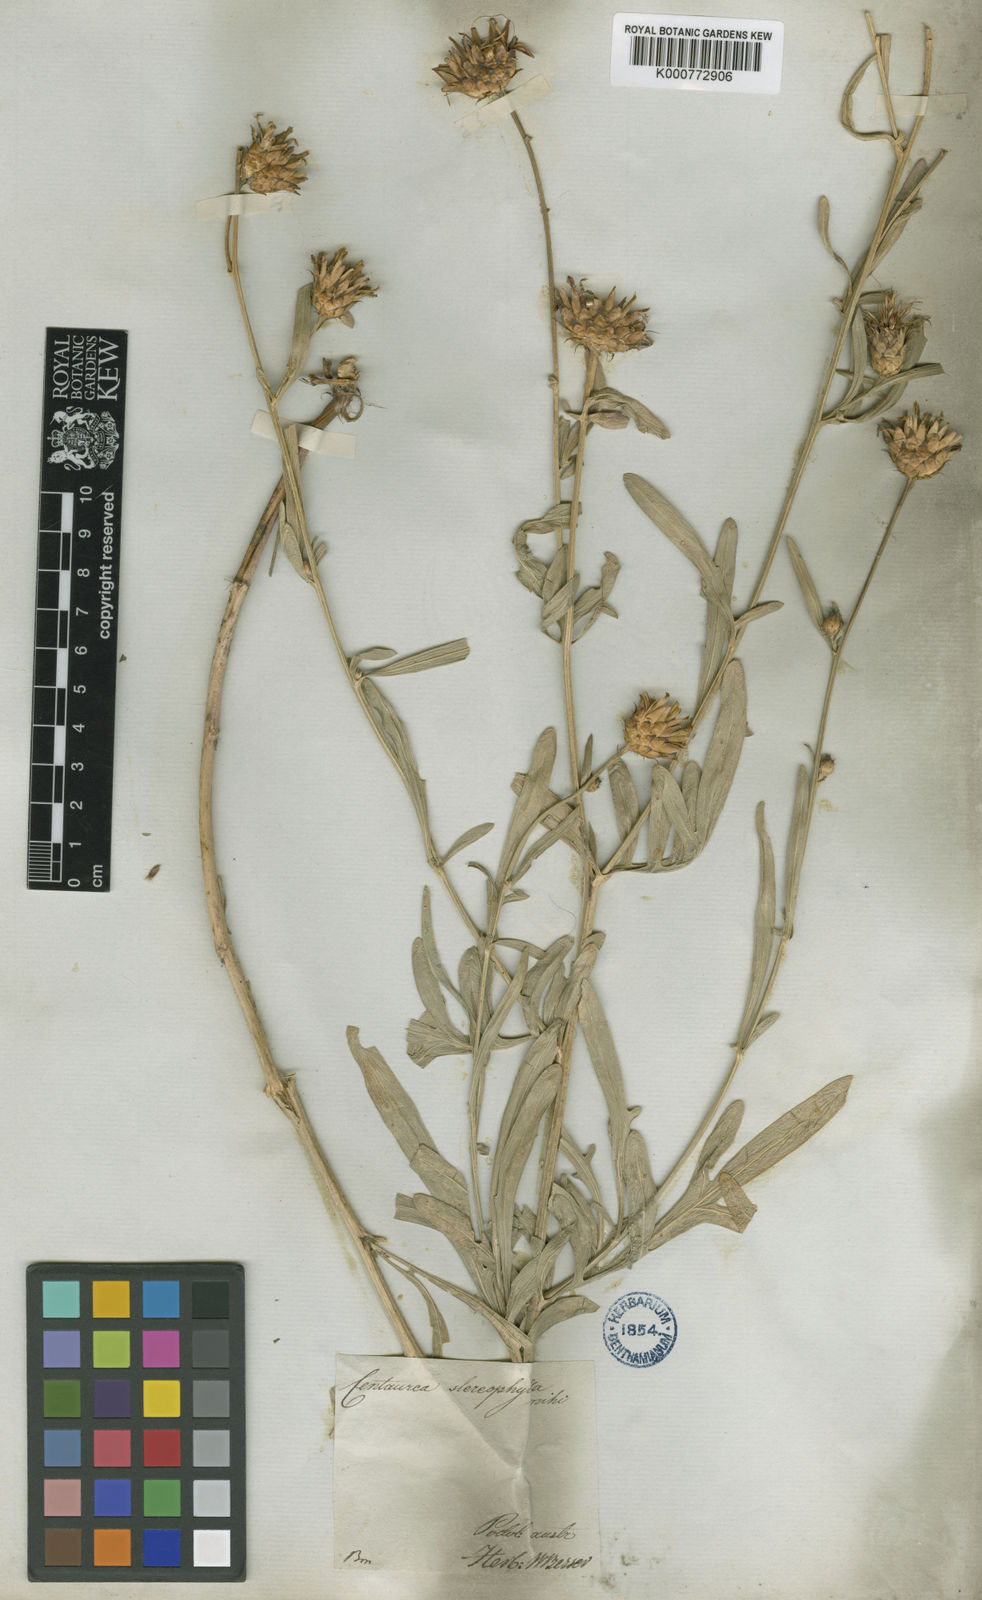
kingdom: Plantae
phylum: Tracheophyta
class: Magnoliopsida
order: Asterales
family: Asteraceae
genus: Centaurea
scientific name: Centaurea stereophylla
